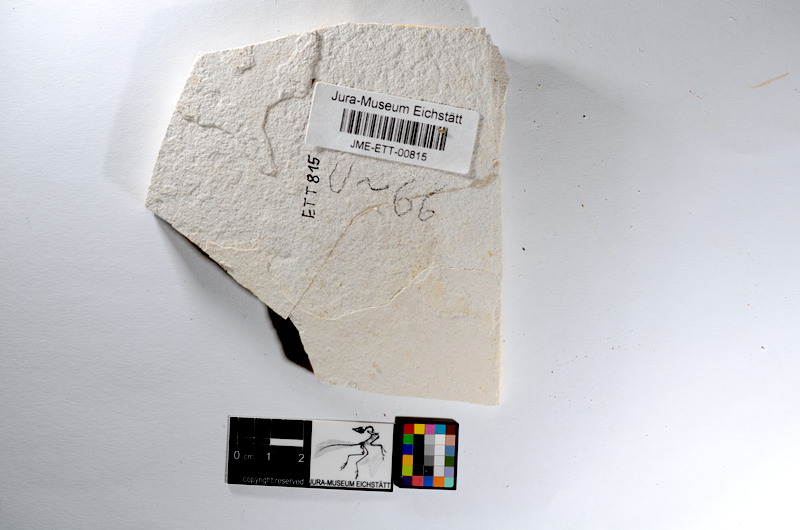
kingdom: Animalia
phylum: Chordata
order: Salmoniformes
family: Orthogonikleithridae
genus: Orthogonikleithrus
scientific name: Orthogonikleithrus hoelli
